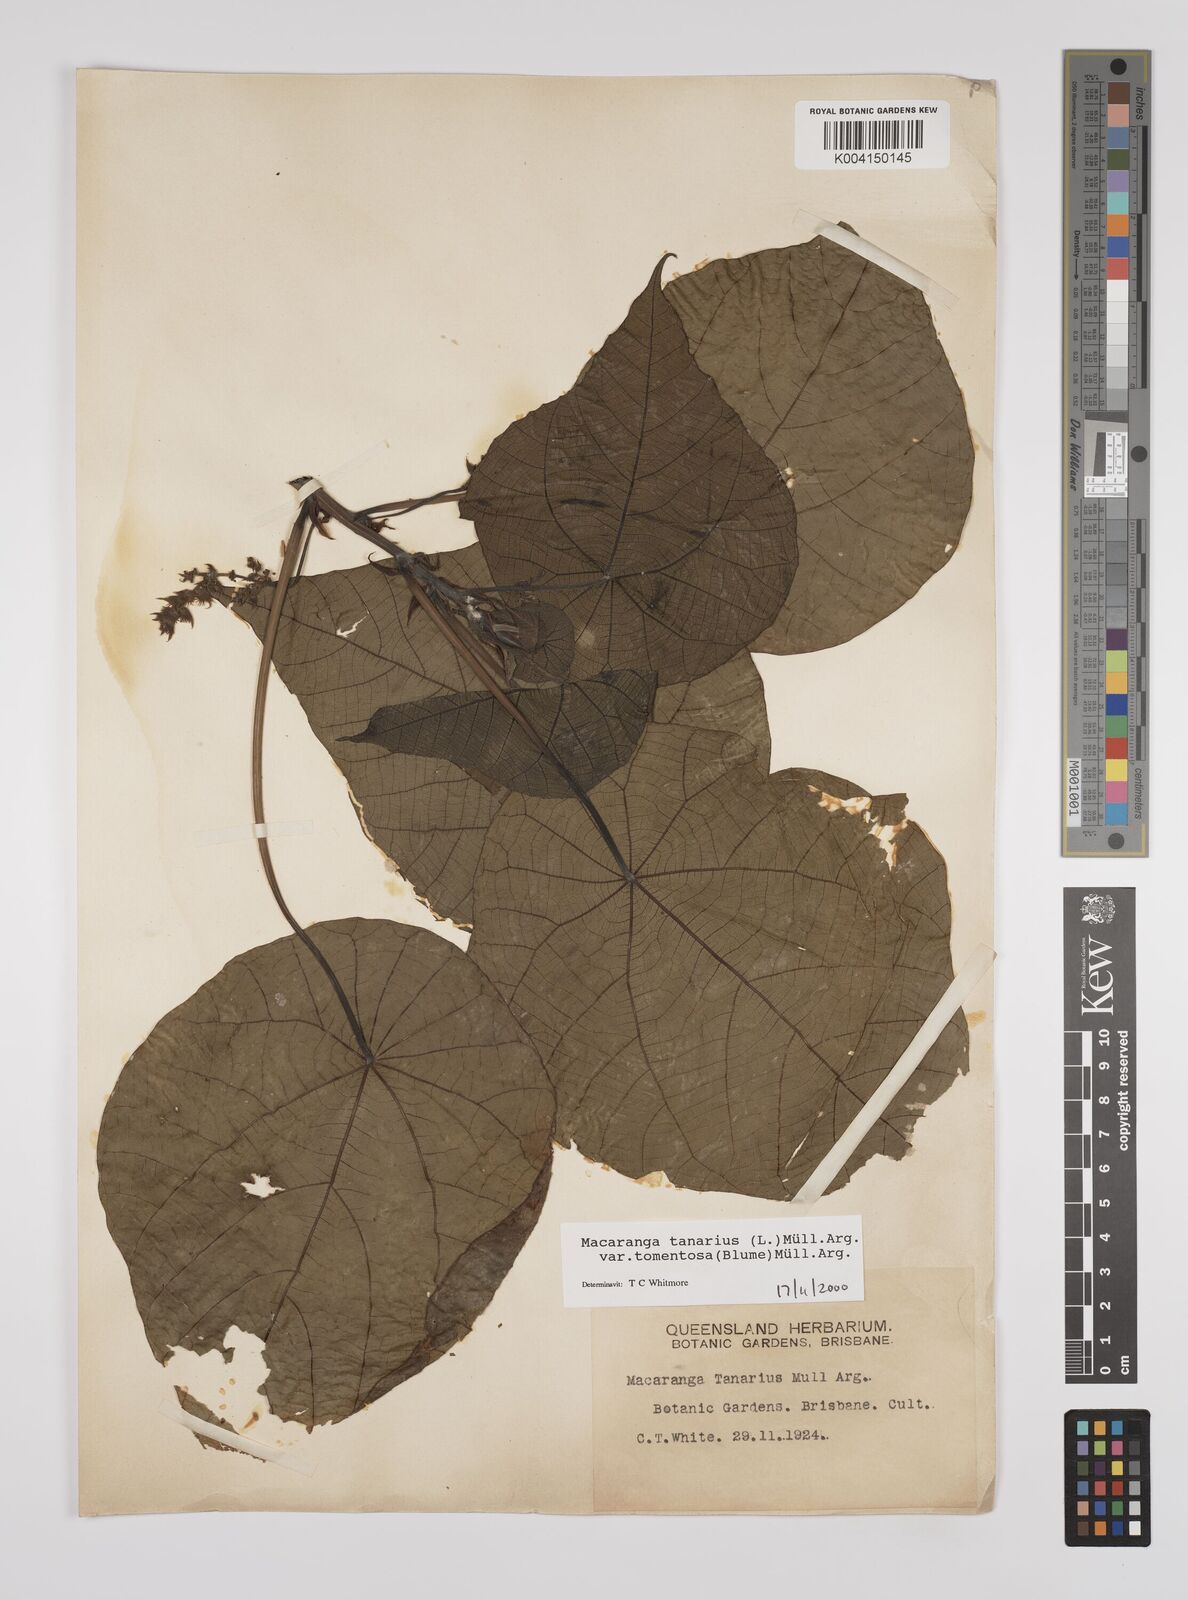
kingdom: Plantae
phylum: Tracheophyta
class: Magnoliopsida
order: Malpighiales
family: Euphorbiaceae
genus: Macaranga
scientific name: Macaranga tanarius
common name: Parasol leaf tree
